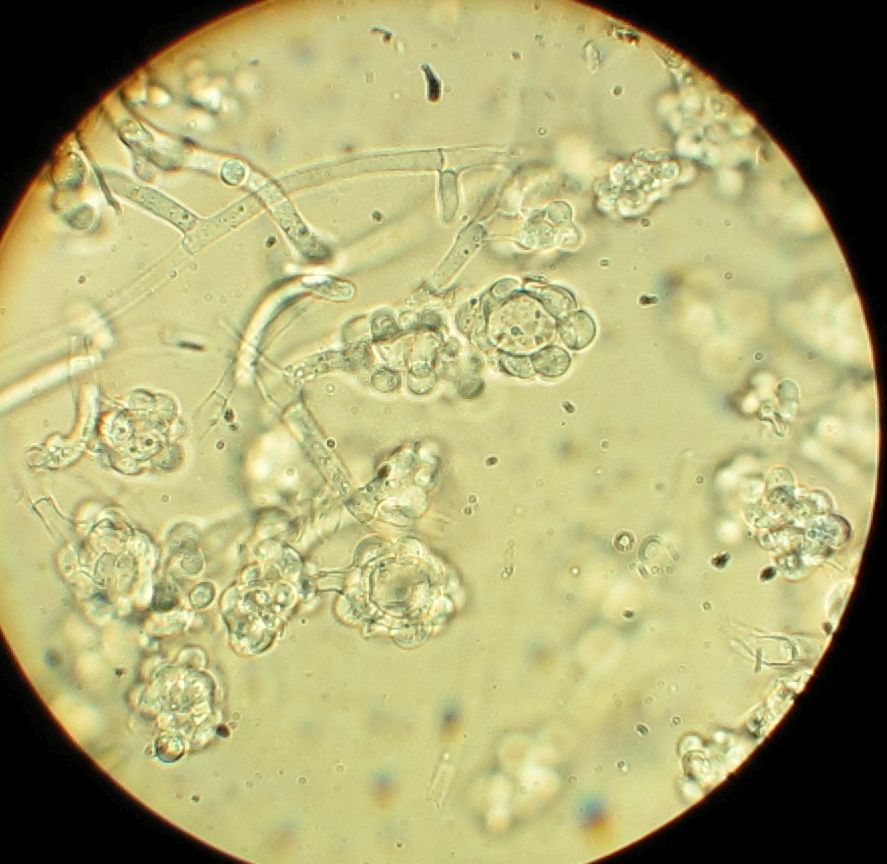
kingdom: Fungi
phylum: Ascomycota
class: Sordariomycetes
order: Hypocreales
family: Hypocreaceae
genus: Hypomyces
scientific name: Hypomyces papulasporae
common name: jordtunge-snylteskorpe
